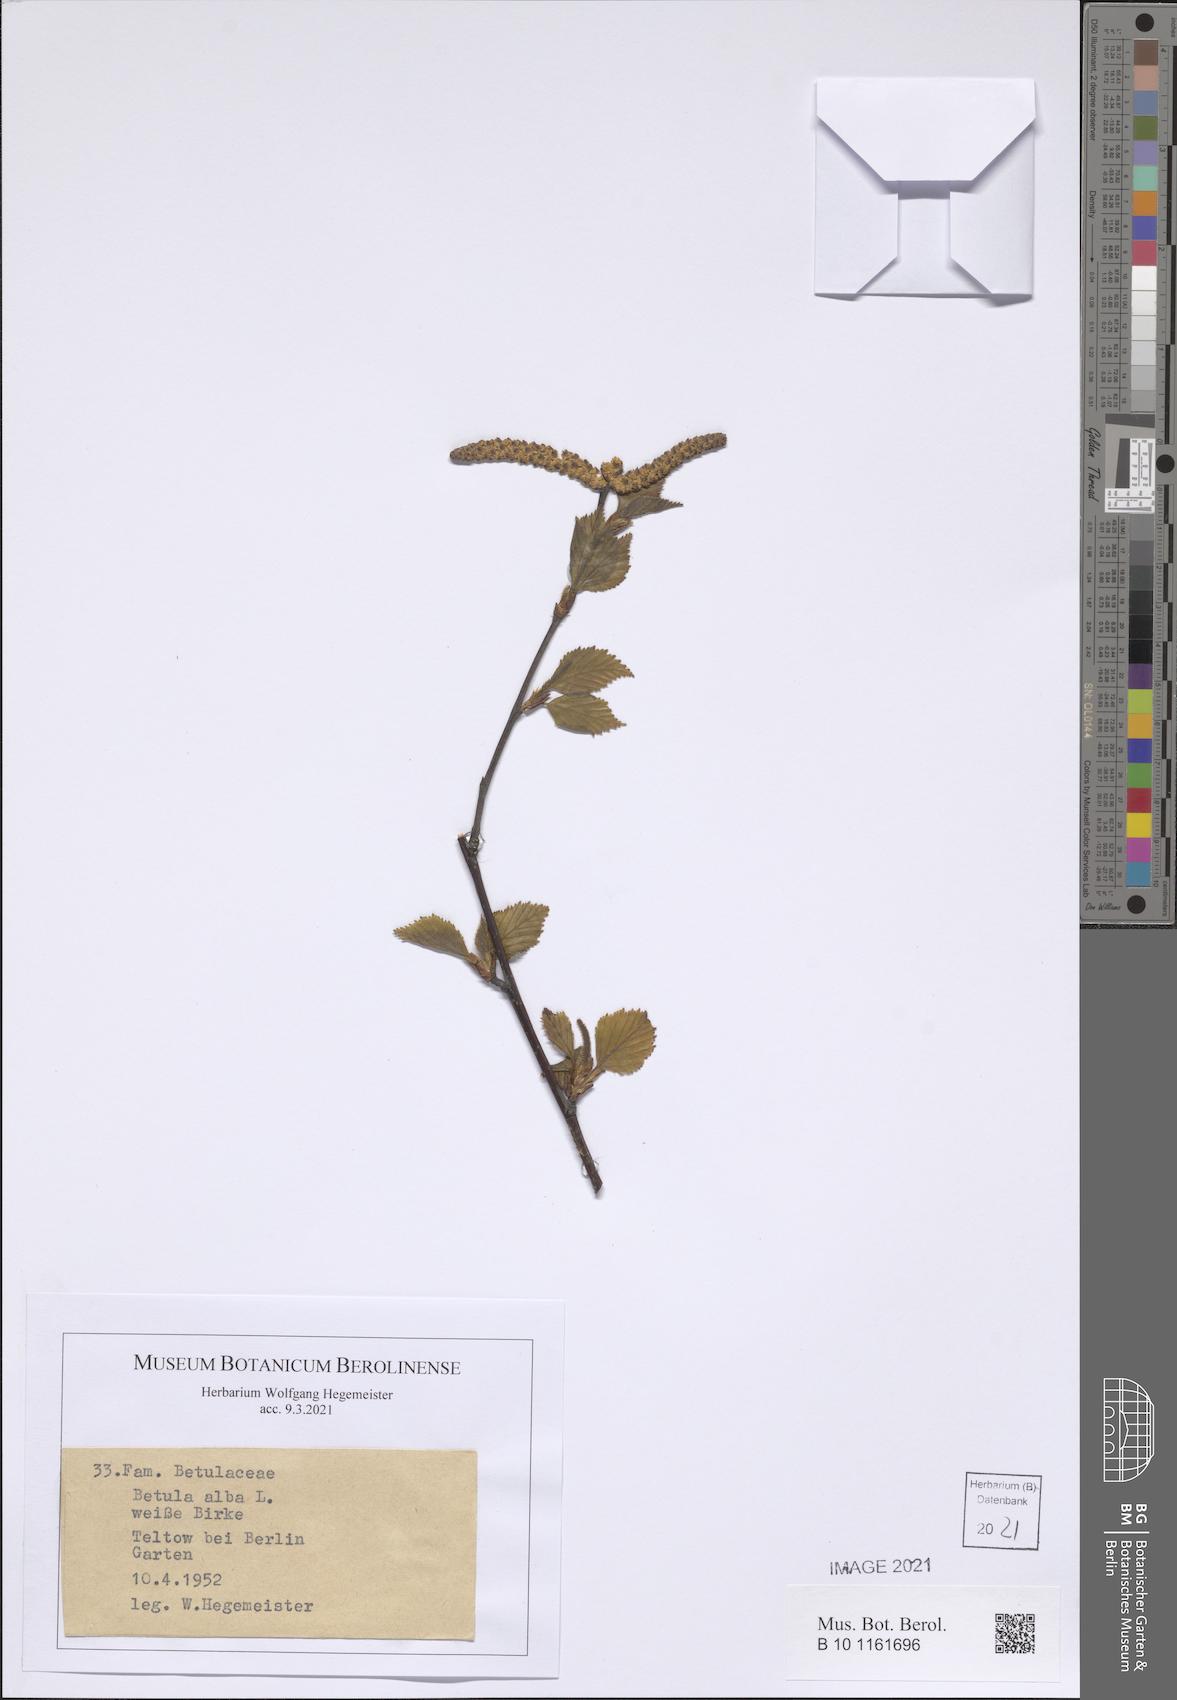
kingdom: Plantae
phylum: Tracheophyta
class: Magnoliopsida
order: Fagales
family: Betulaceae
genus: Betula
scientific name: Betula pubescens
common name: Downy birch
